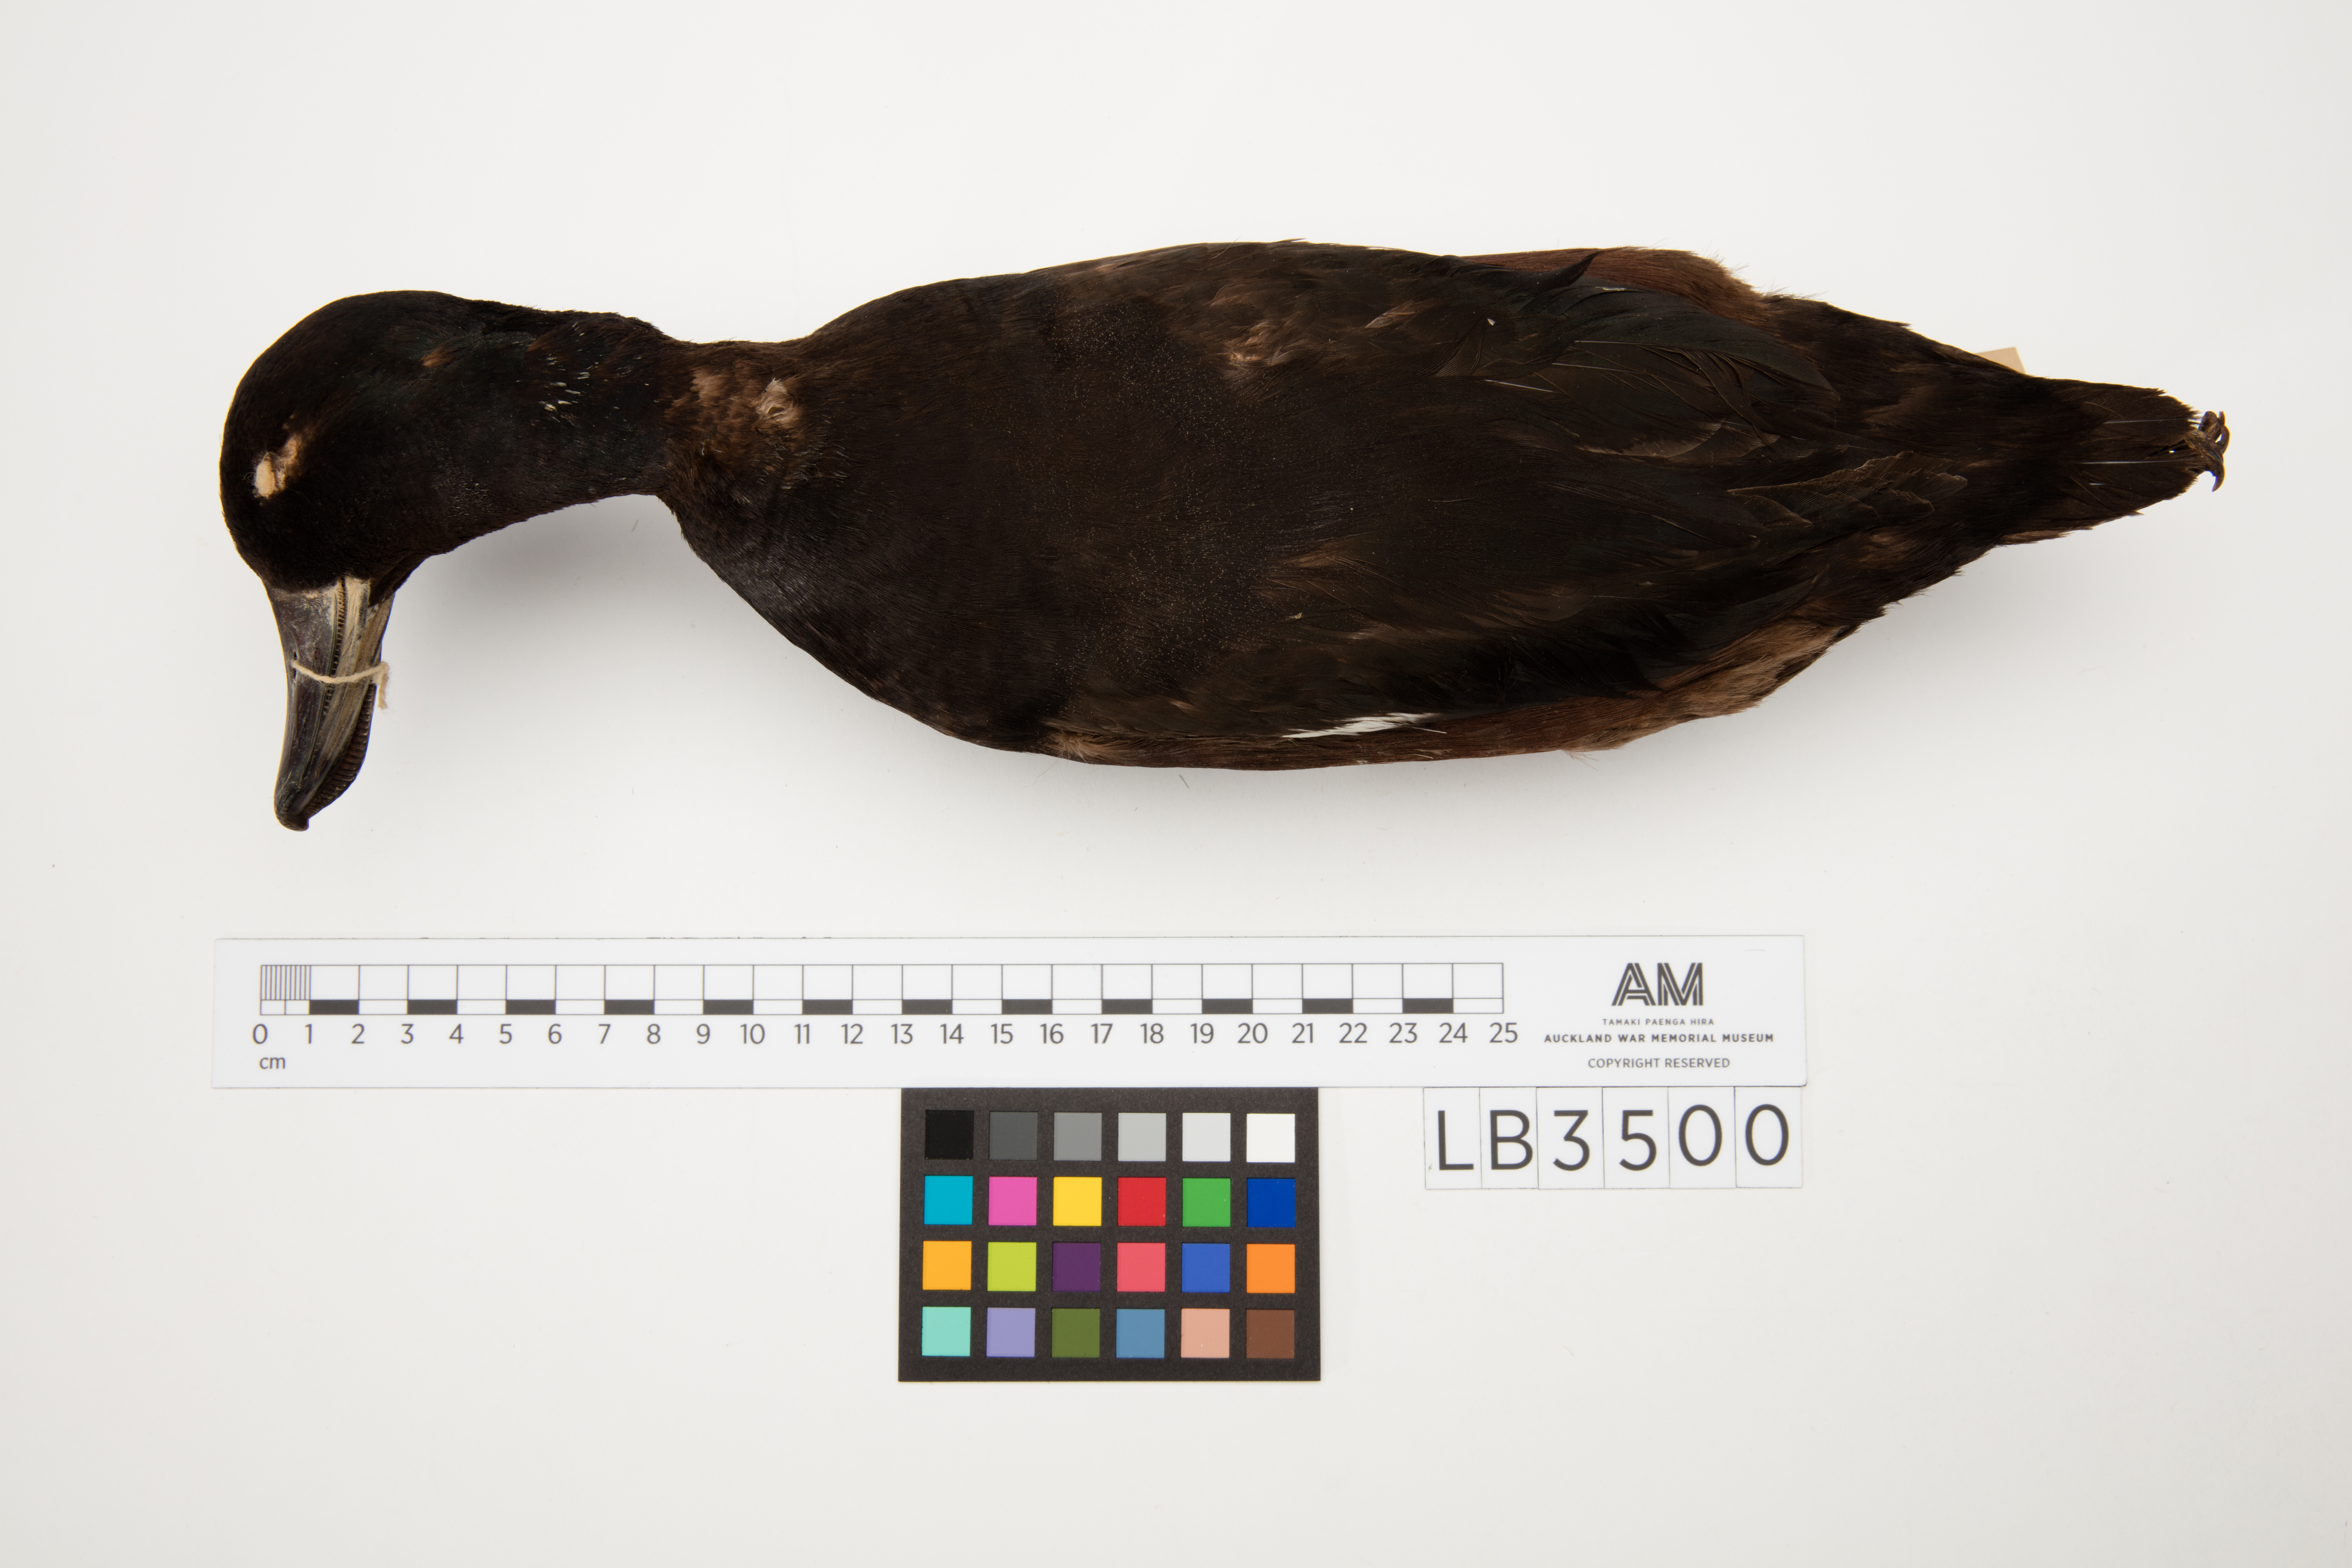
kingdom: Animalia
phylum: Chordata
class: Aves
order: Anseriformes
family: Anatidae
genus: Aythya
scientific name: Aythya novaeseelandiae
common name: New zealand scaup
